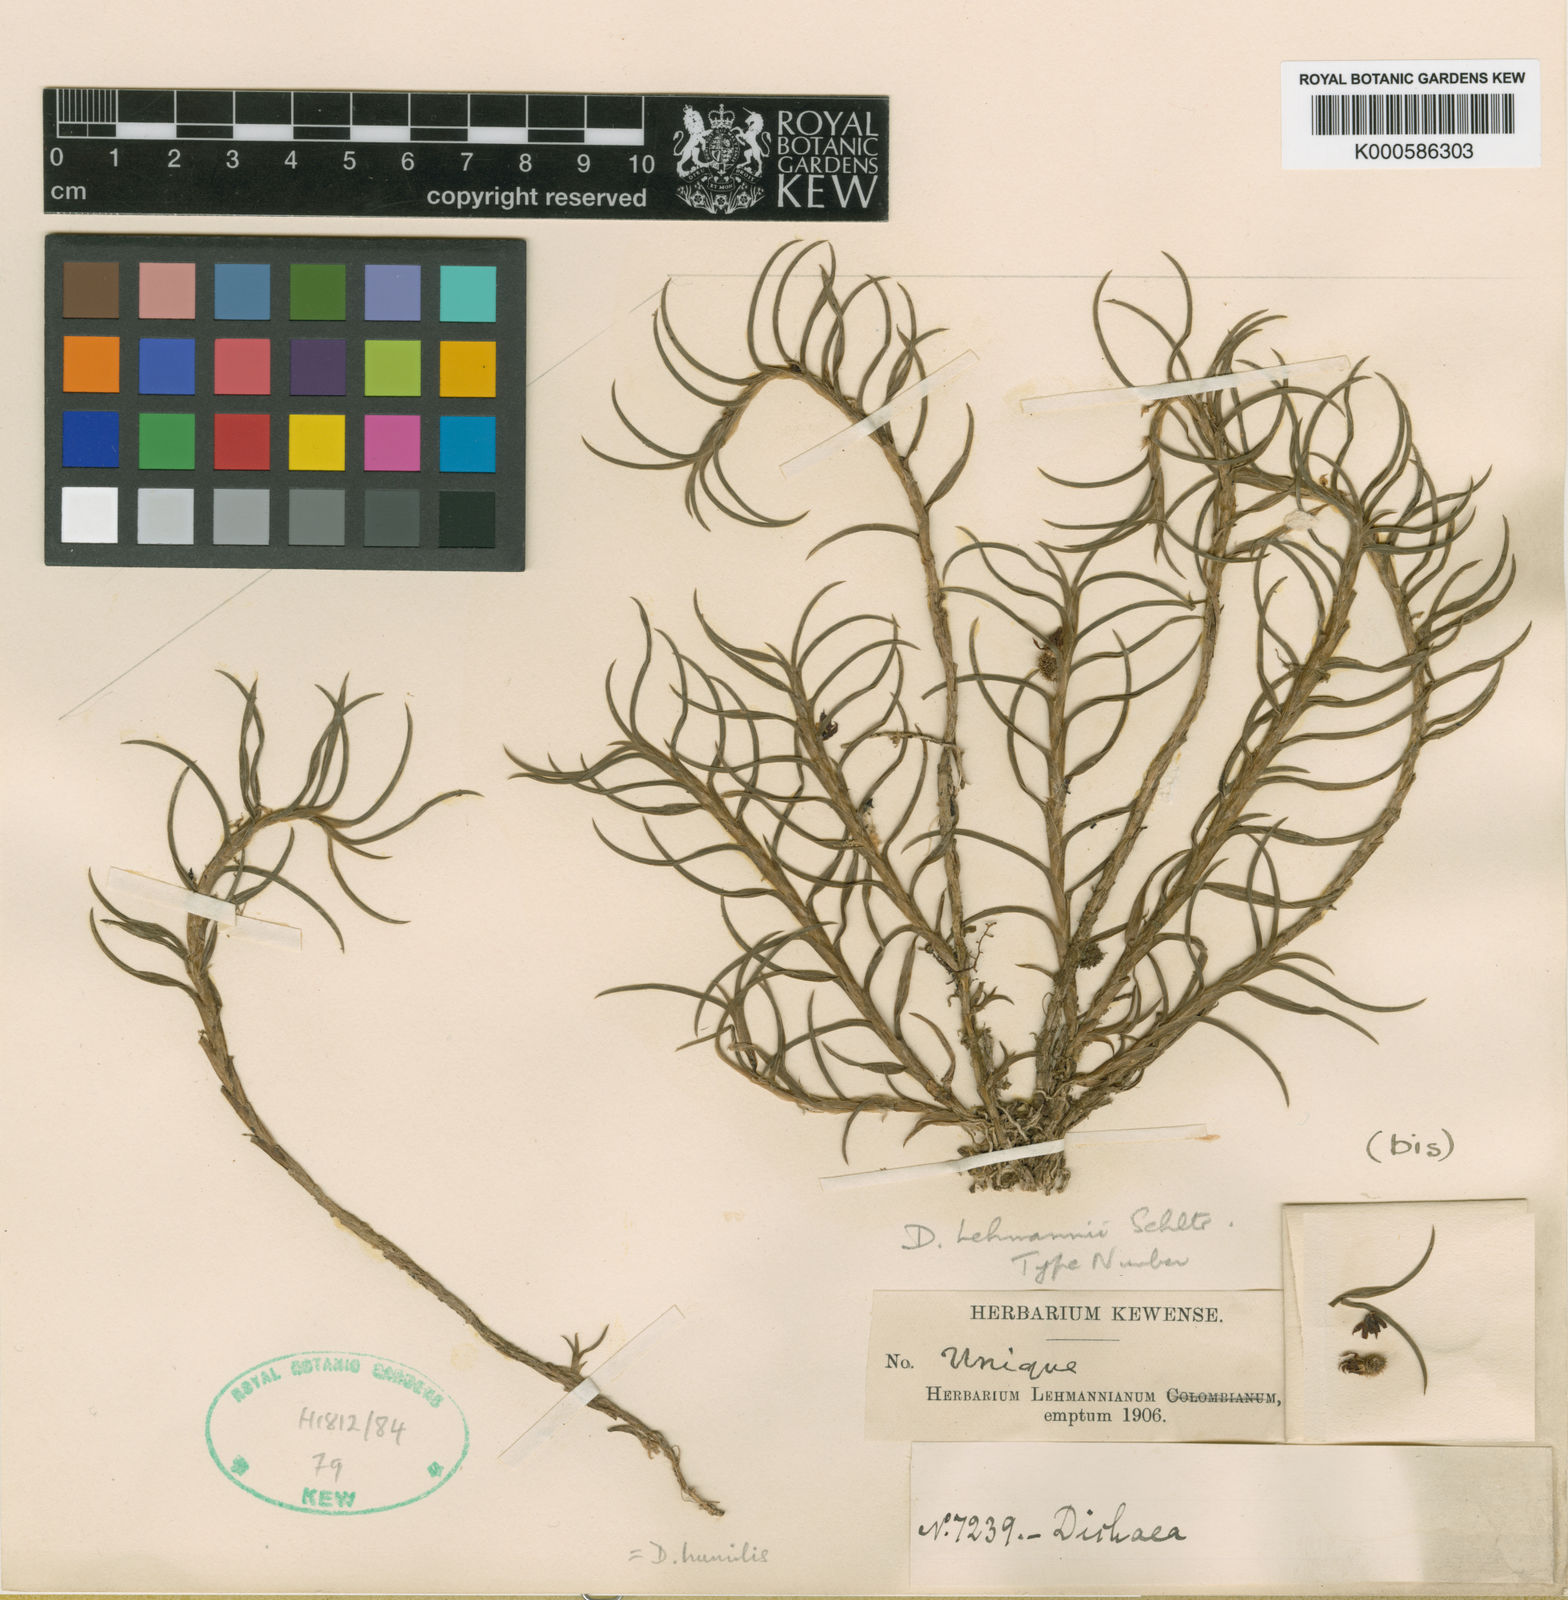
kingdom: Plantae
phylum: Tracheophyta
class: Liliopsida
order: Asparagales
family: Orchidaceae
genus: Dichaea
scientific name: Dichaea lehmannii
